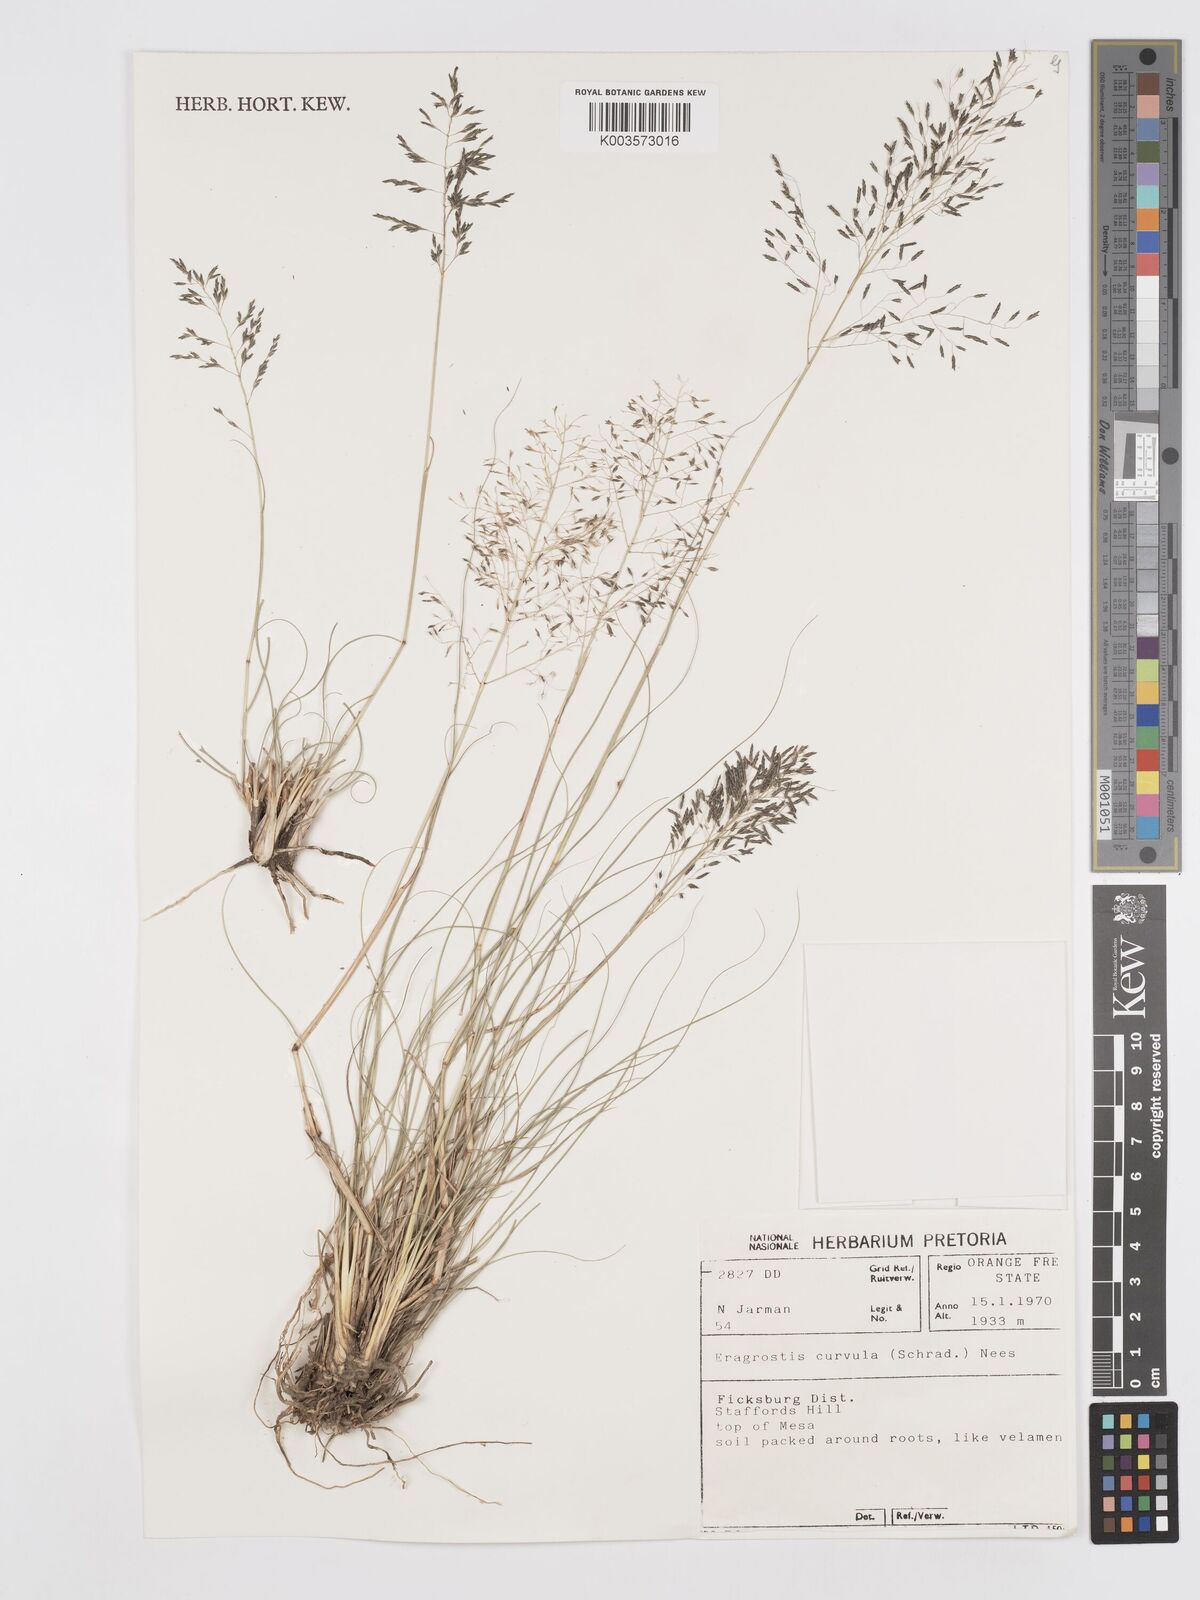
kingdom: Plantae
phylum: Tracheophyta
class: Liliopsida
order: Poales
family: Poaceae
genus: Eragrostis
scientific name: Eragrostis curvula
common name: African love-grass
